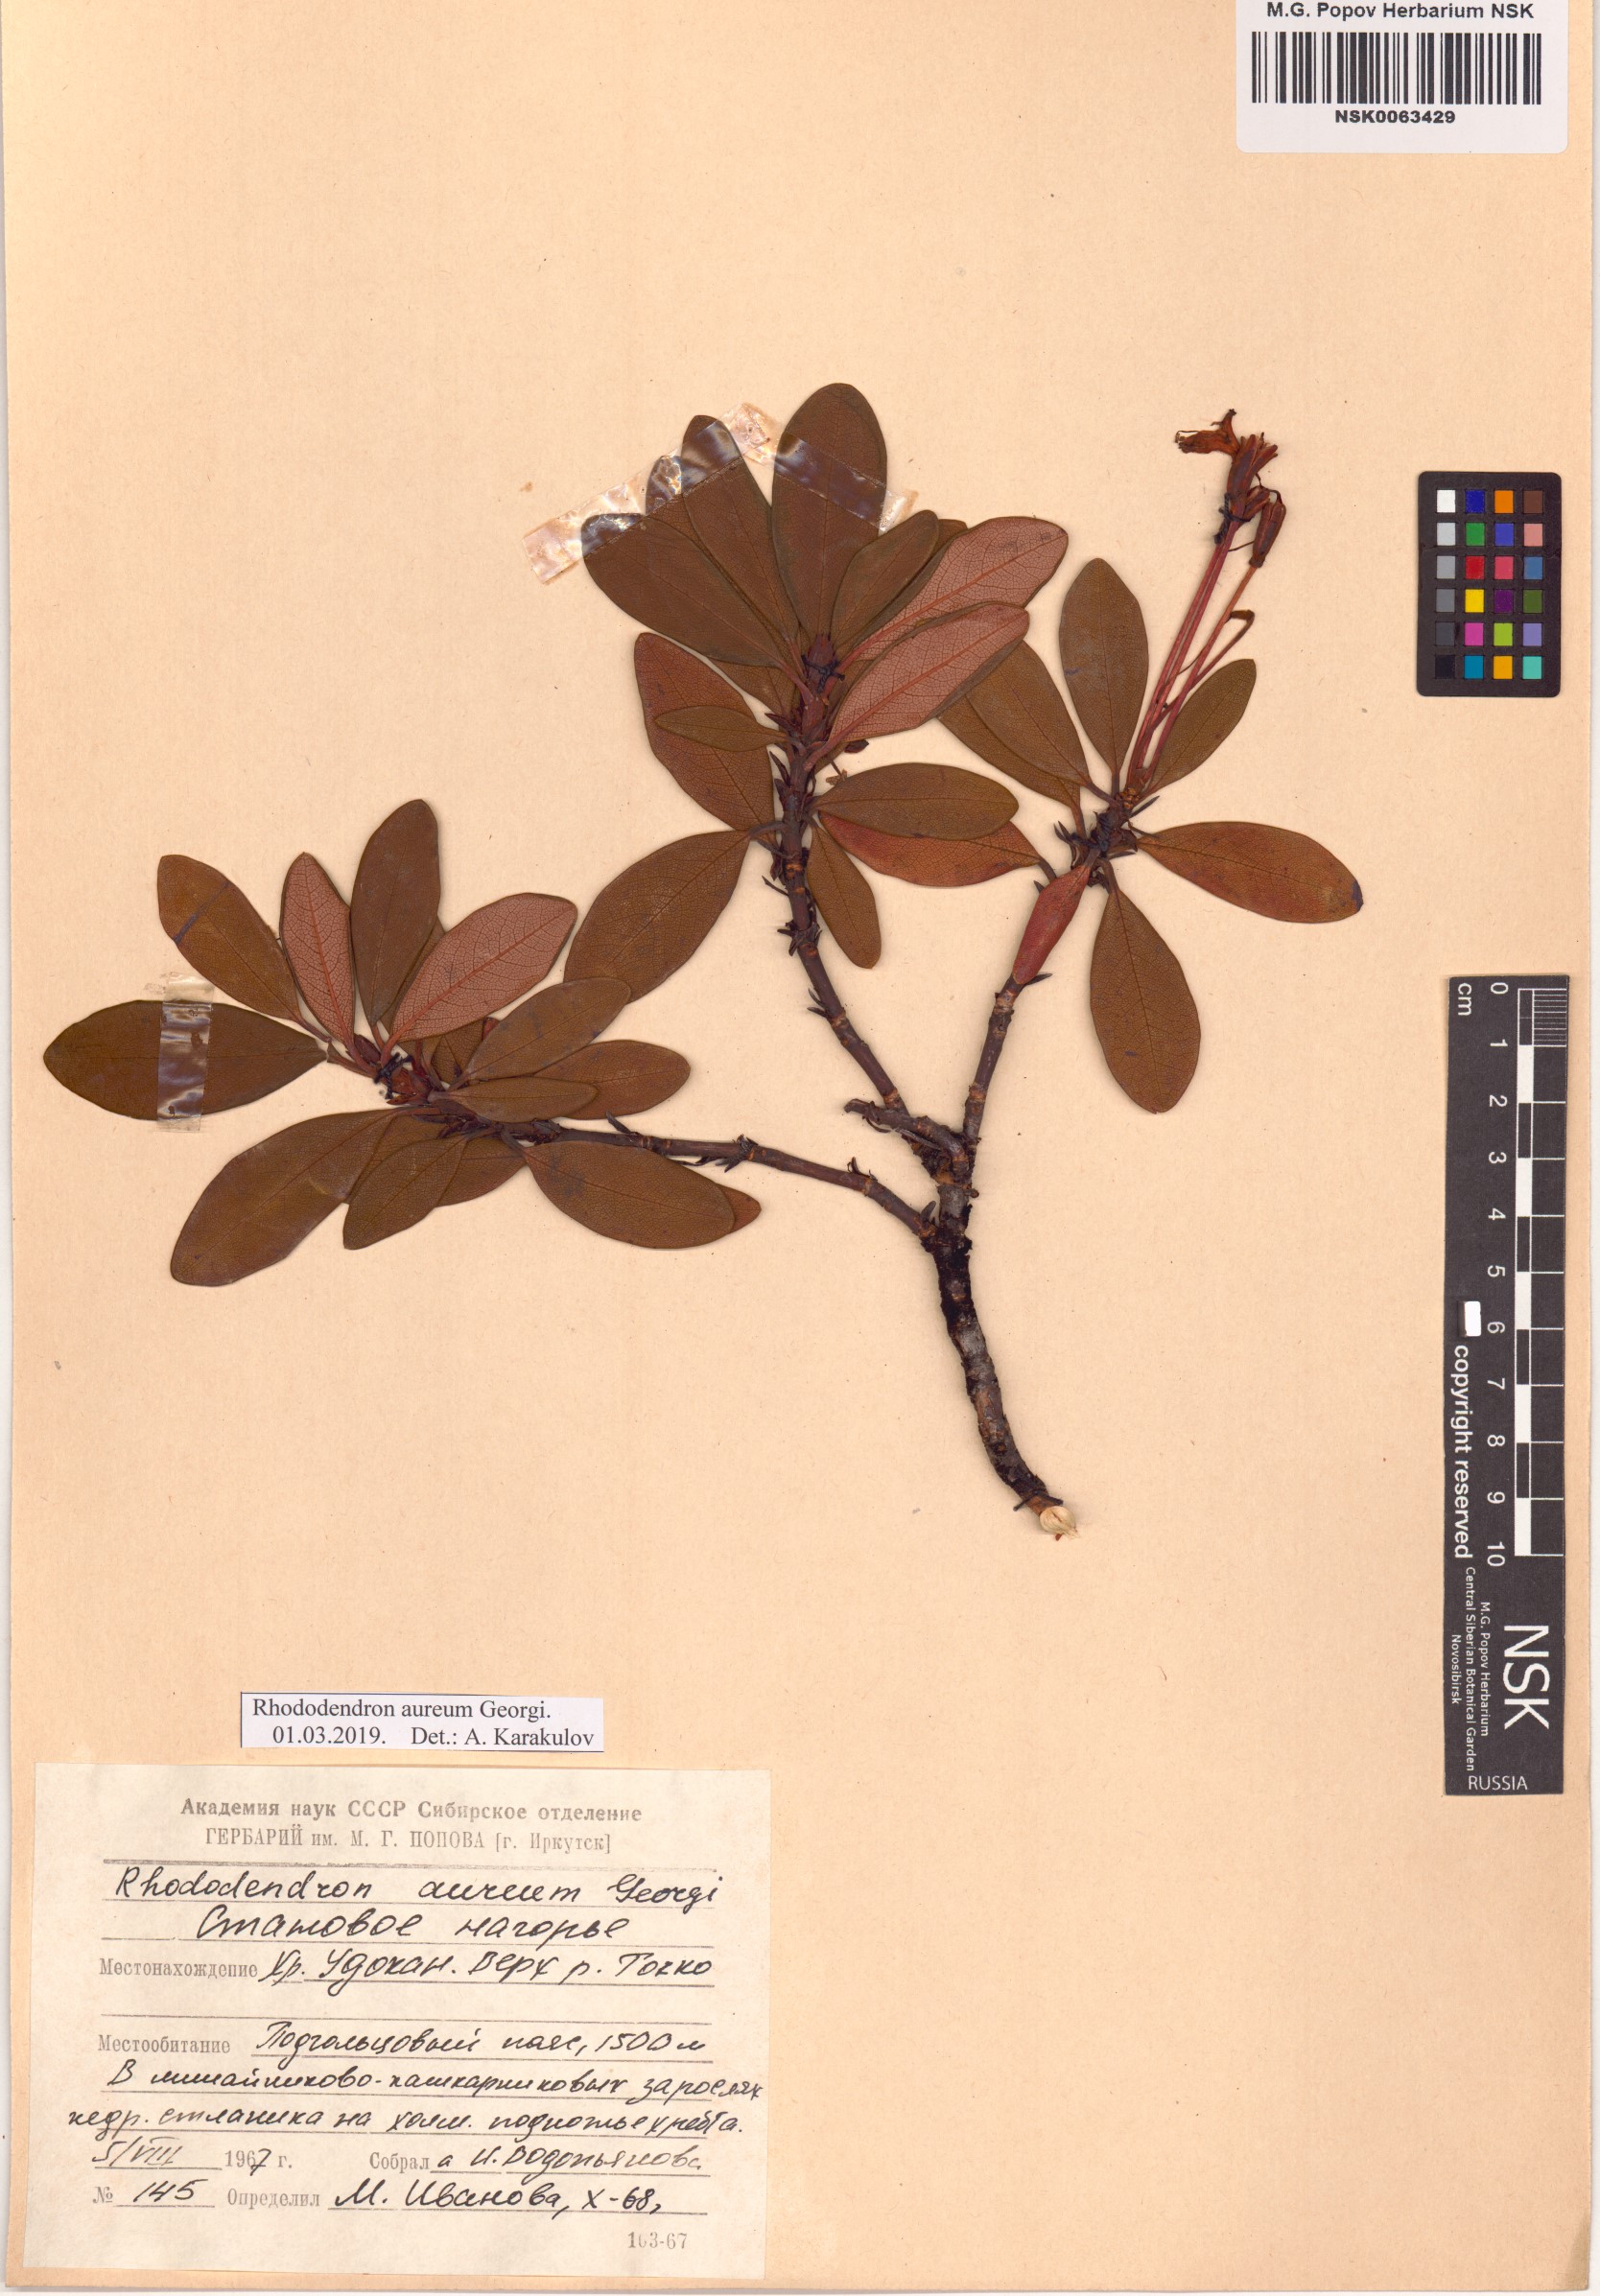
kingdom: Plantae
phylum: Tracheophyta
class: Magnoliopsida
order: Ericales
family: Ericaceae
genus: Rhododendron
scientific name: Rhododendron aureum
